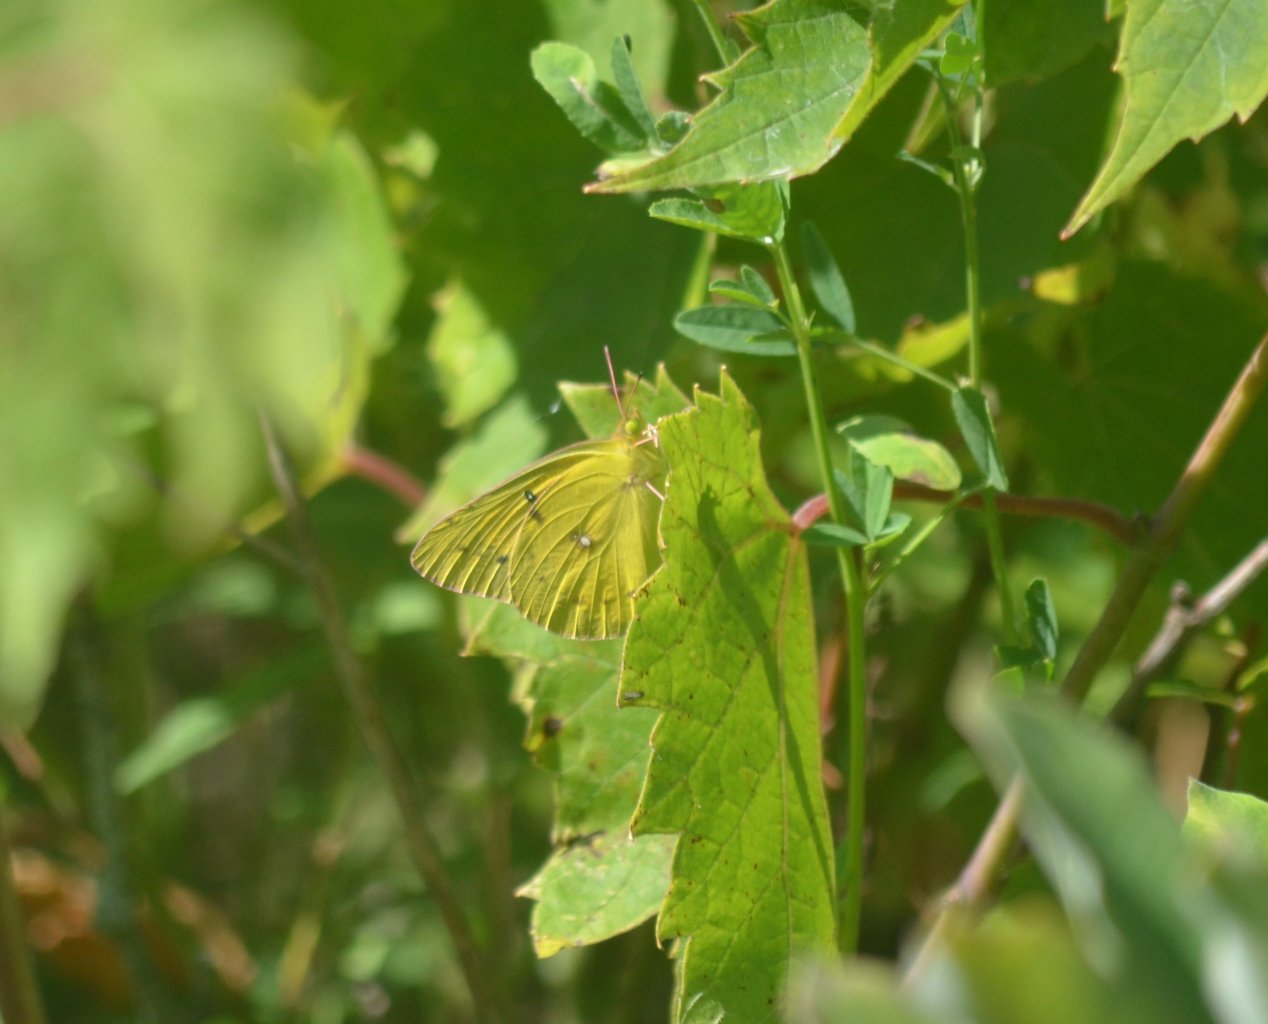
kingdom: Animalia
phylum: Arthropoda
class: Insecta
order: Lepidoptera
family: Pieridae
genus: Colias
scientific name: Colias philodice
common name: Clouded Sulphur
